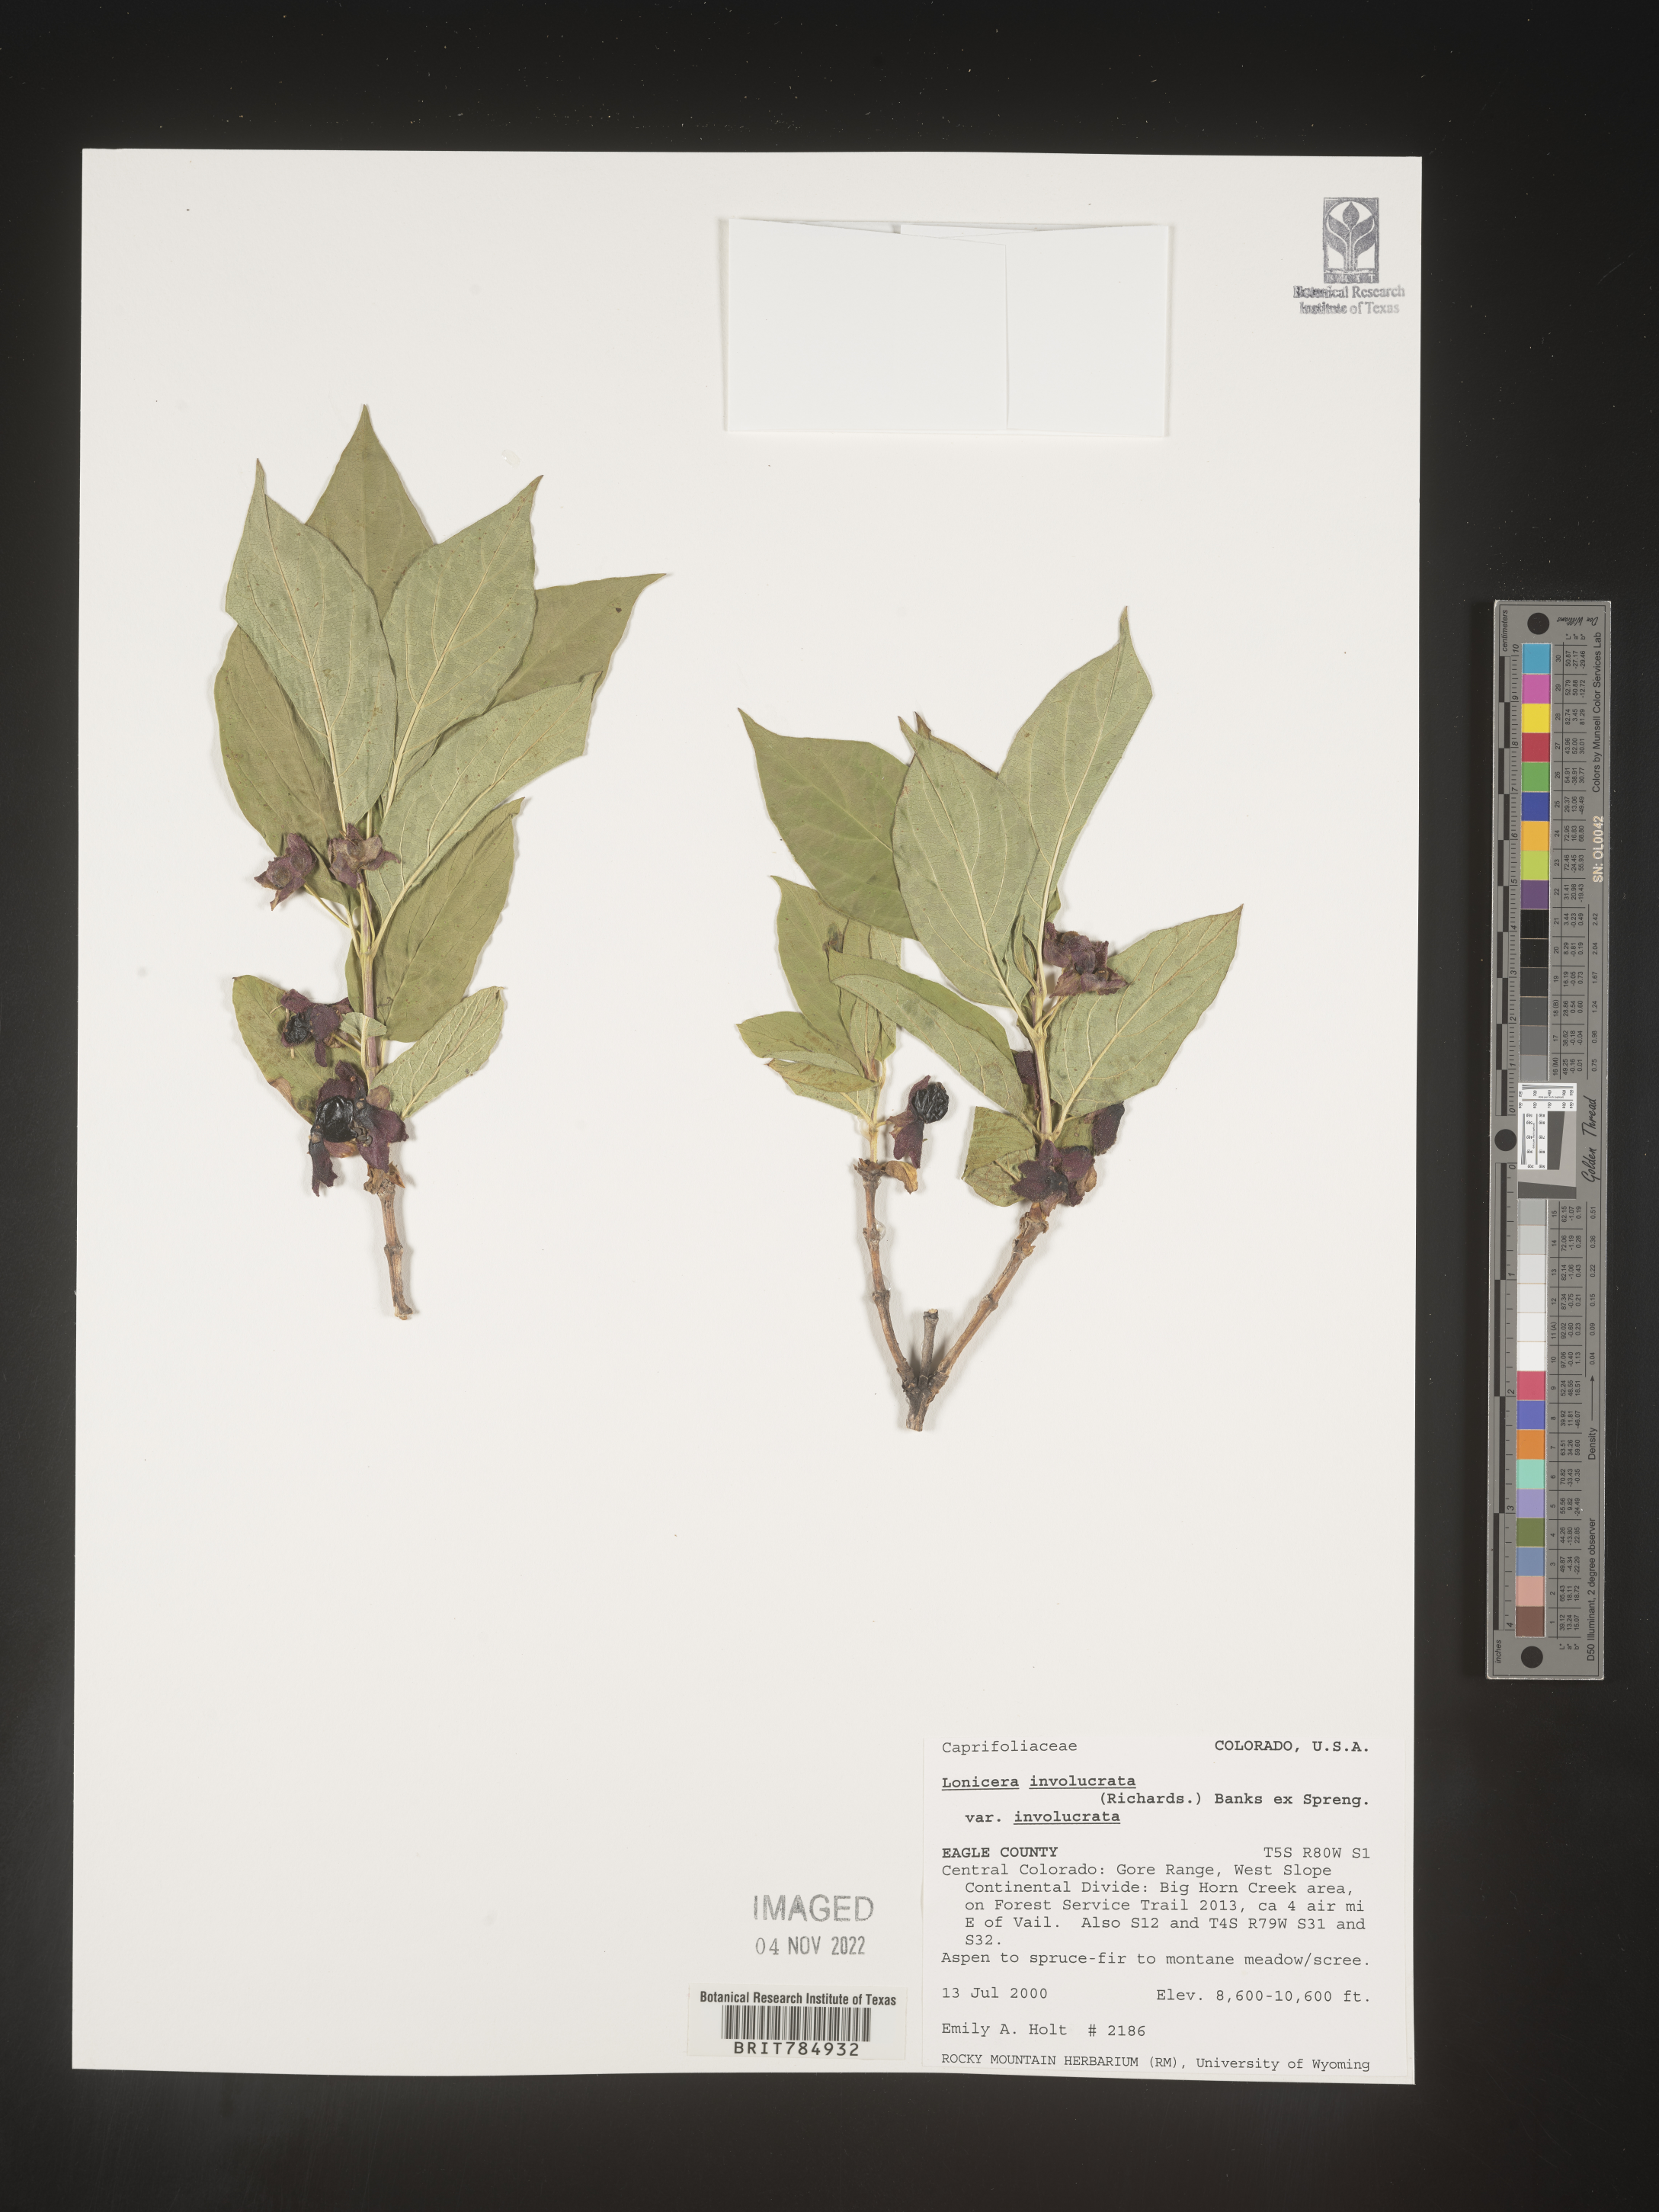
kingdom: Plantae
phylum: Tracheophyta
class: Magnoliopsida
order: Dipsacales
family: Caprifoliaceae
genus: Lonicera
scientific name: Lonicera involucrata
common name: Californian honeysuckle
